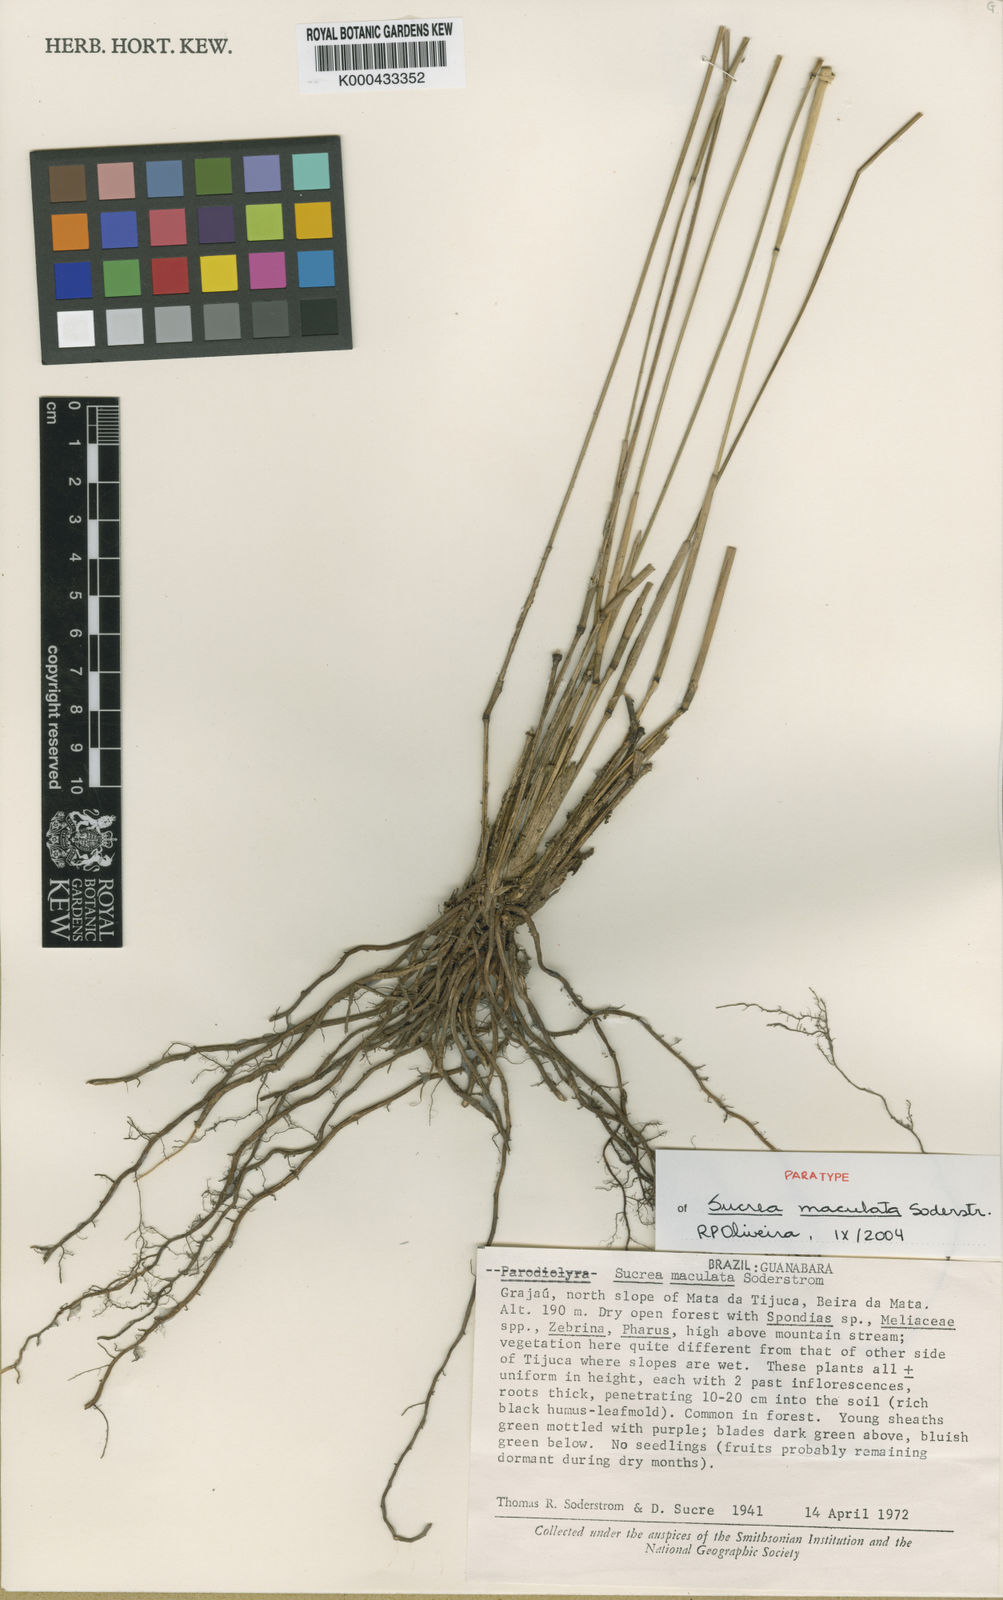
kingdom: Plantae
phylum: Tracheophyta
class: Liliopsida
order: Poales
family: Poaceae
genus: Raddia
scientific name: Raddia maculata
